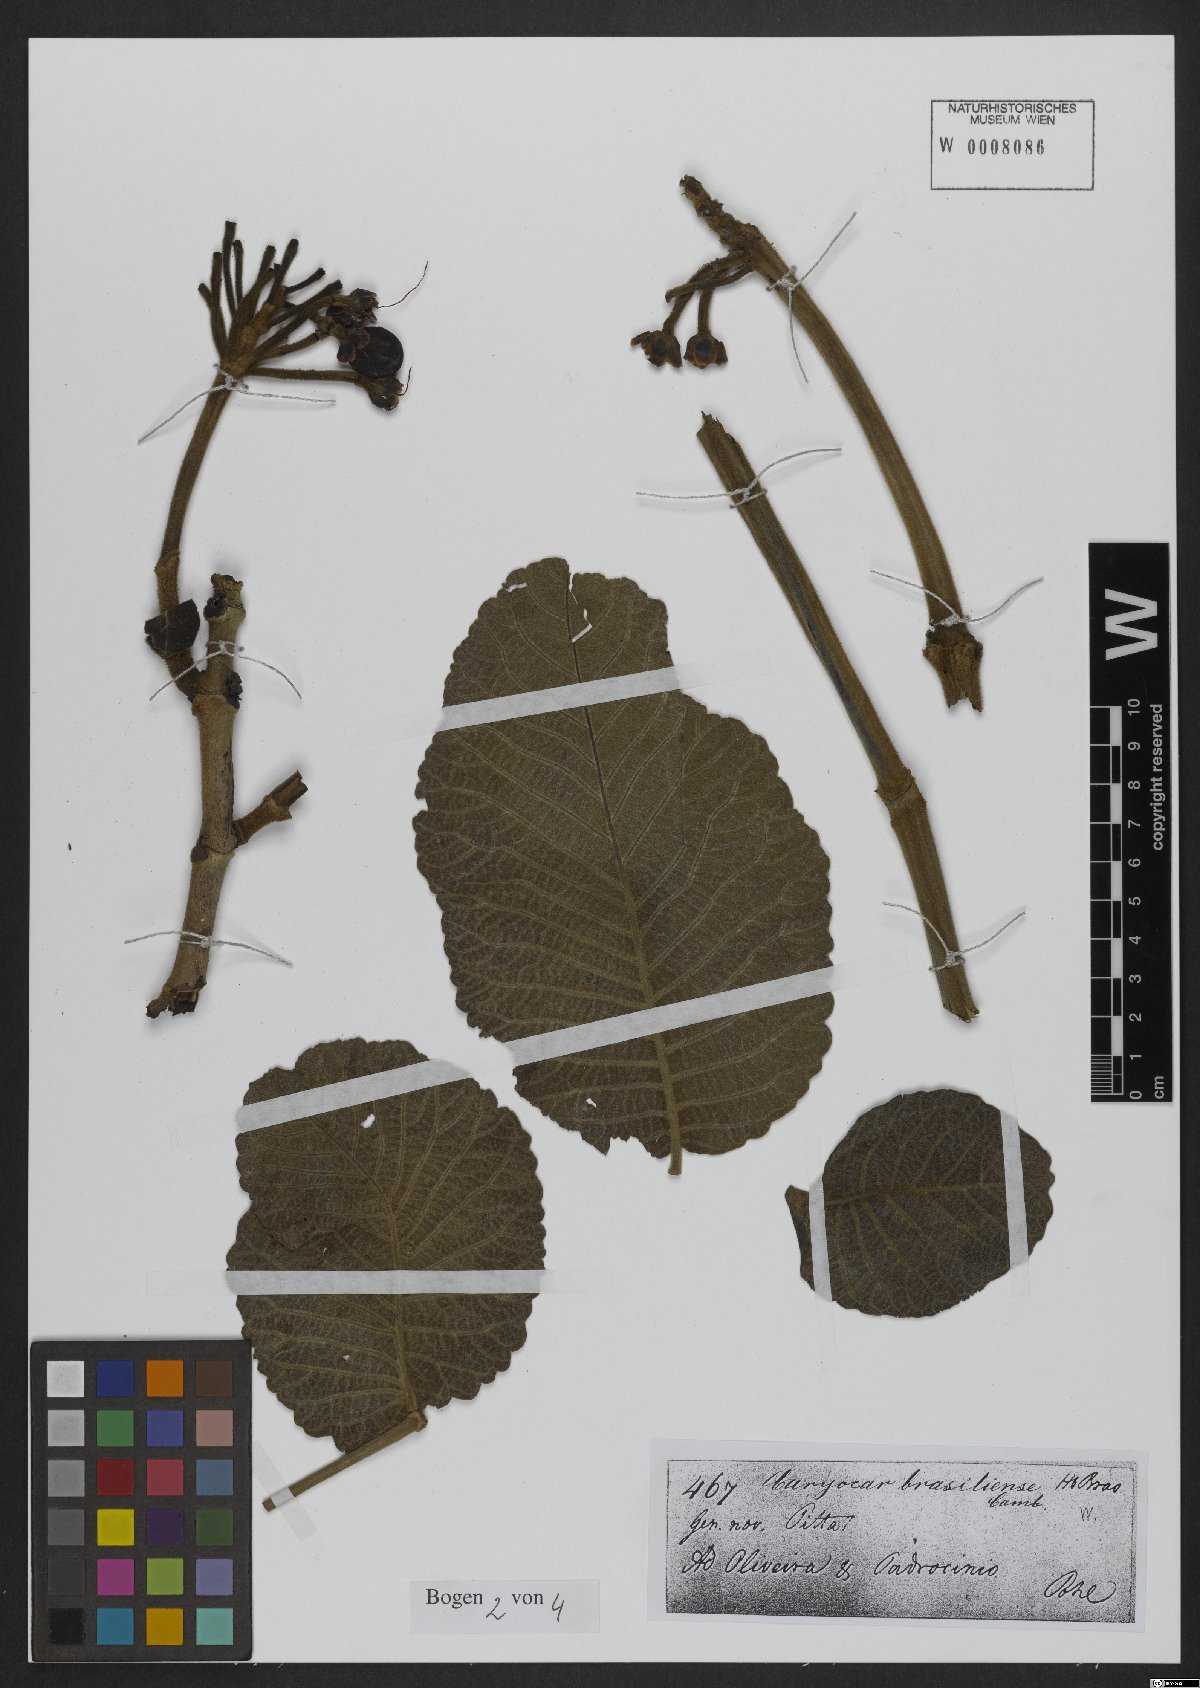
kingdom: Plantae
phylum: Tracheophyta
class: Magnoliopsida
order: Malpighiales
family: Caryocaraceae
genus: Caryocar
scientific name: Caryocar brasiliense
